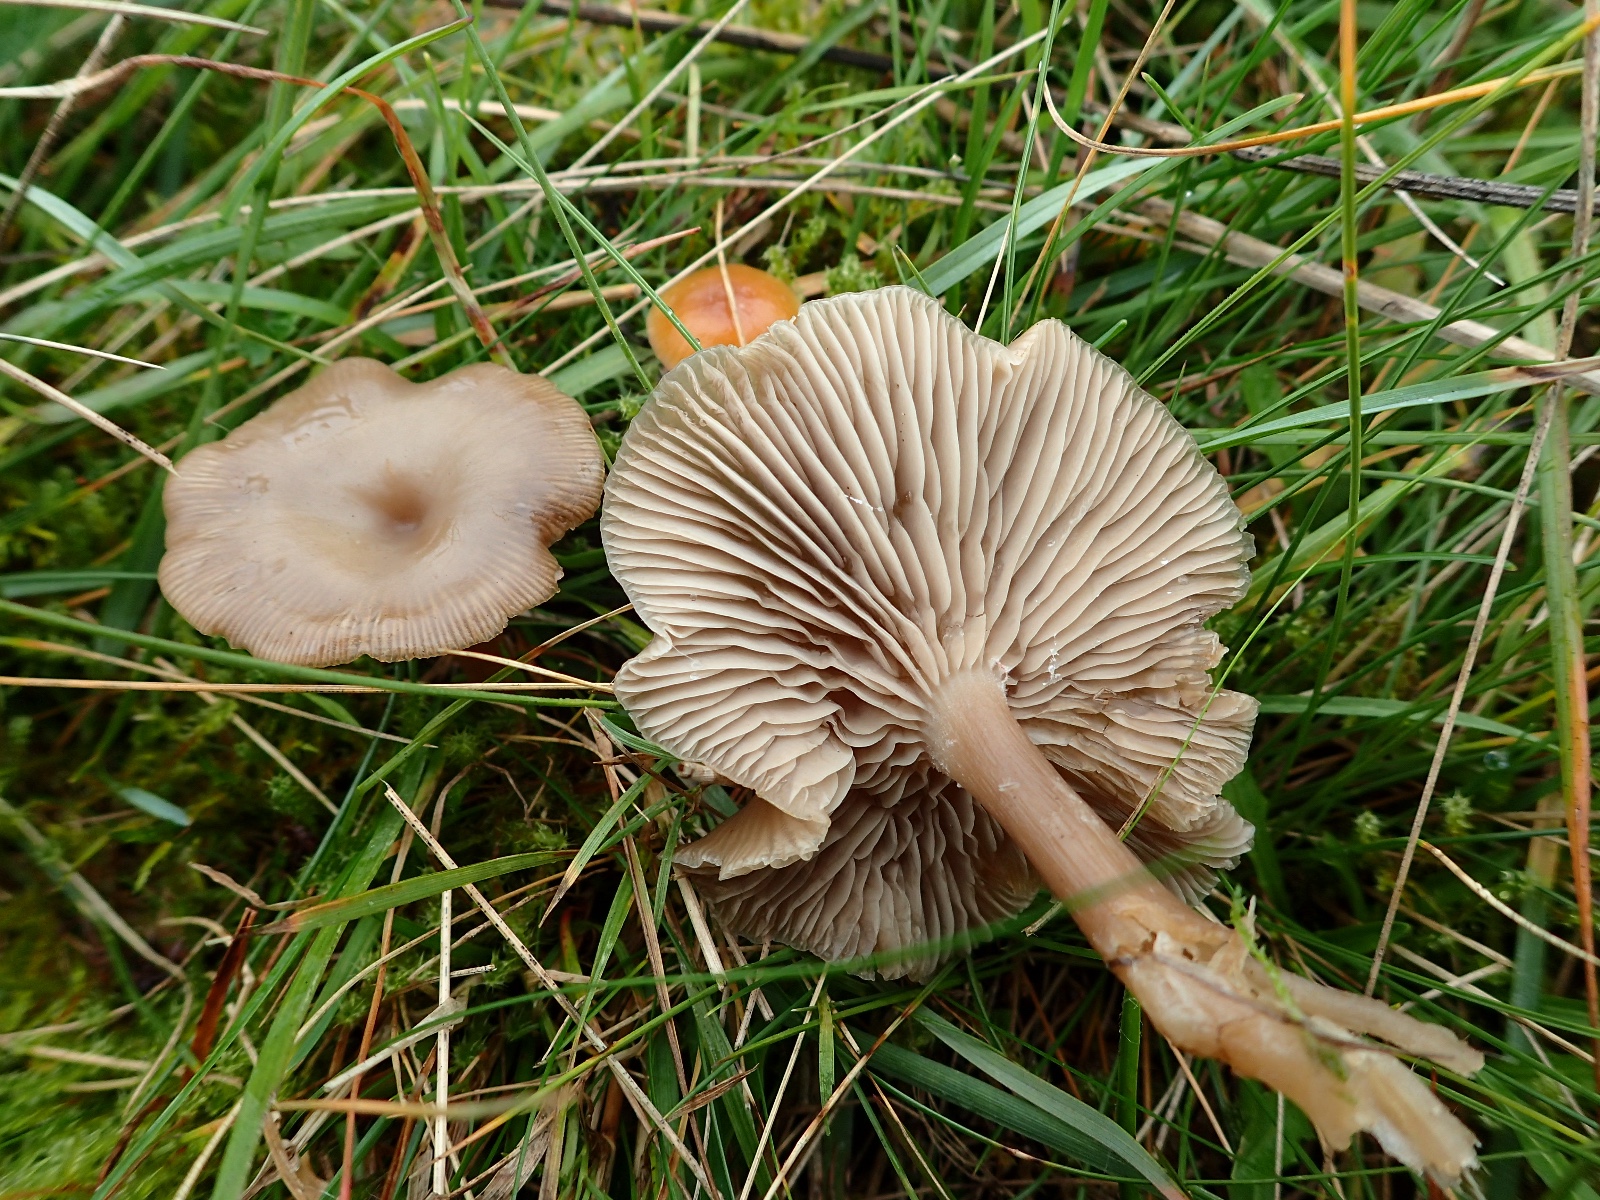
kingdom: Fungi
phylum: Basidiomycota
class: Agaricomycetes
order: Agaricales
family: Tricholomataceae
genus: Clitocybe
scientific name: Clitocybe
